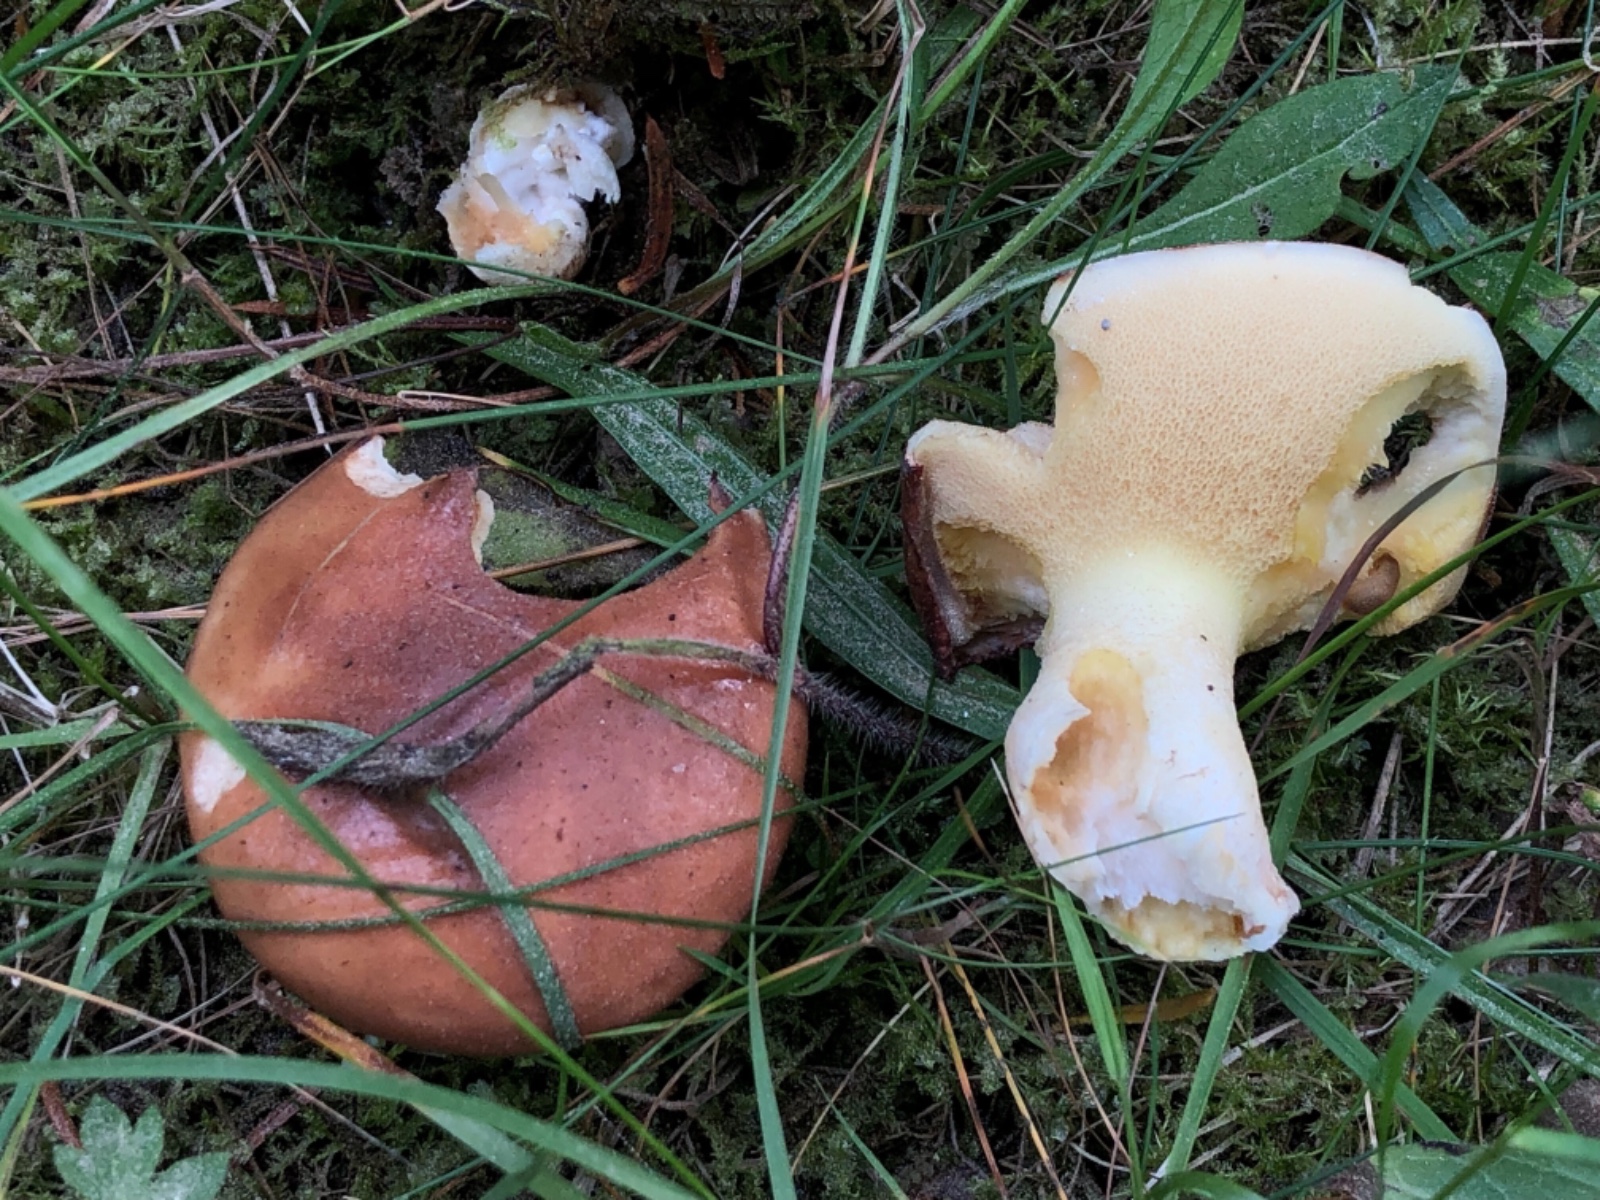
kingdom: Fungi
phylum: Basidiomycota
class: Agaricomycetes
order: Boletales
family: Suillaceae
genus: Suillus
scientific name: Suillus granulatus
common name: kornet slimrørhat
